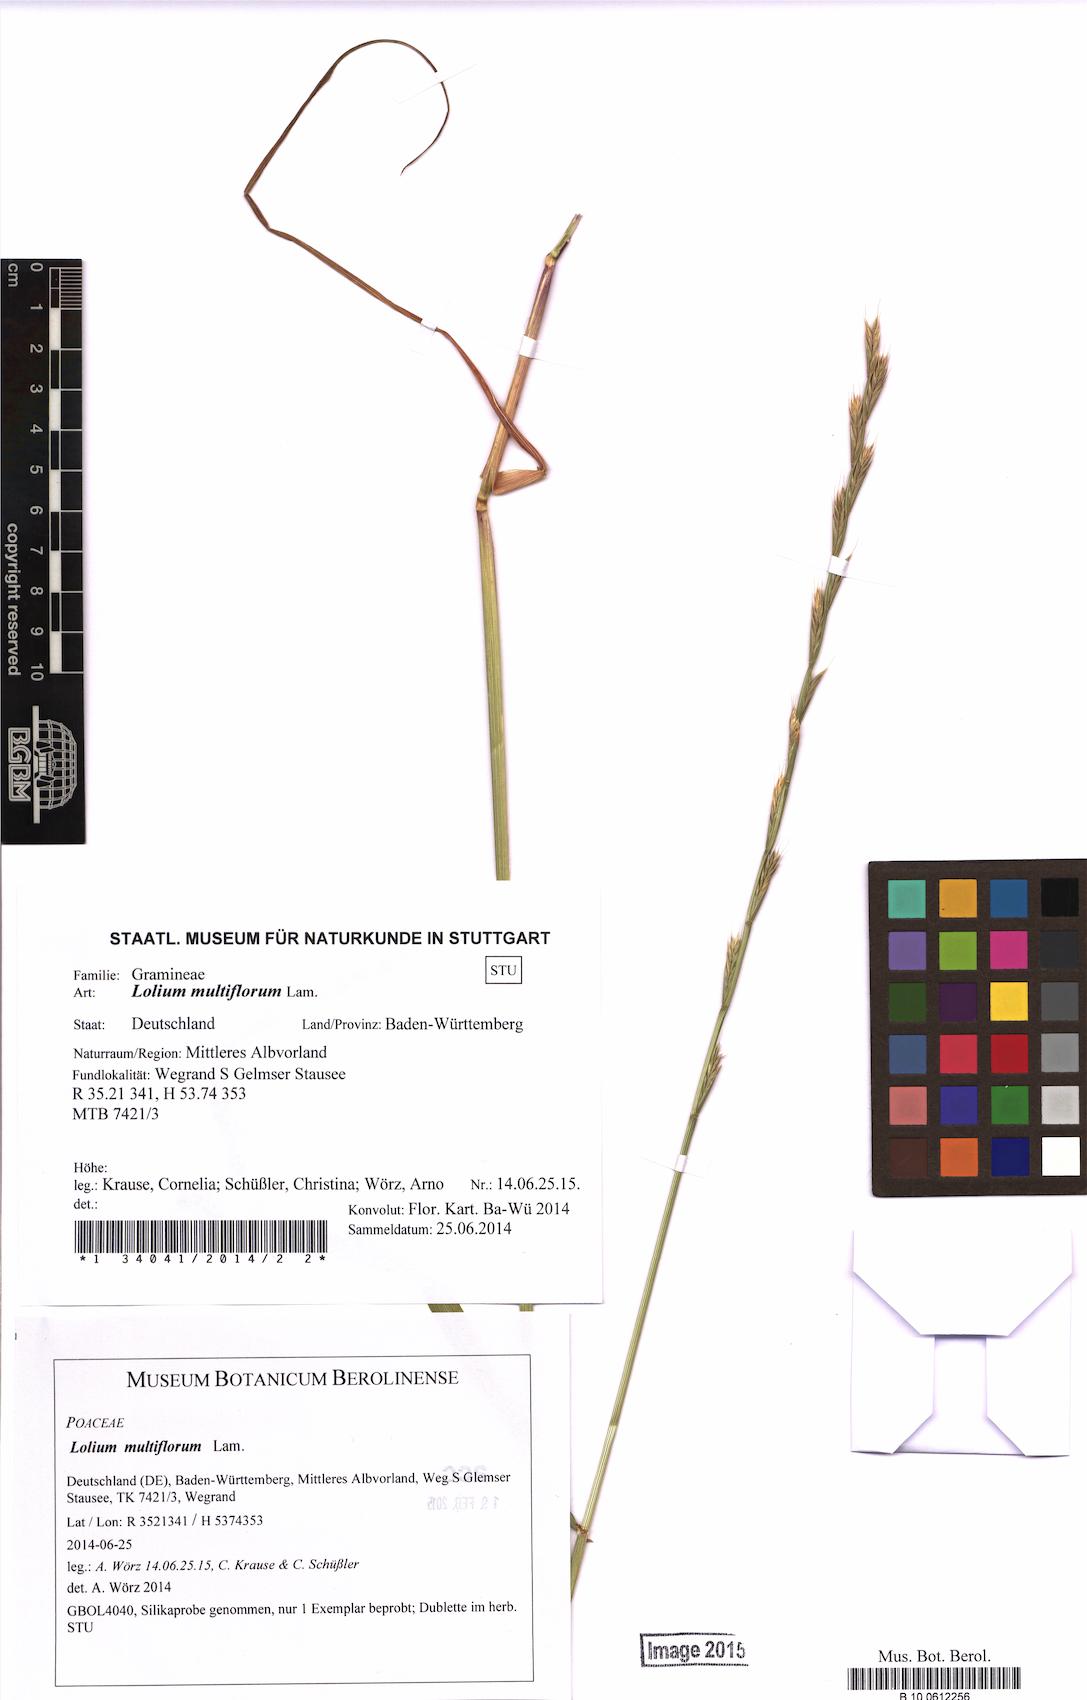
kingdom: Plantae
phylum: Tracheophyta
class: Liliopsida
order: Poales
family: Poaceae
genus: Lolium
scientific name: Lolium multiflorum
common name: Annual ryegrass
